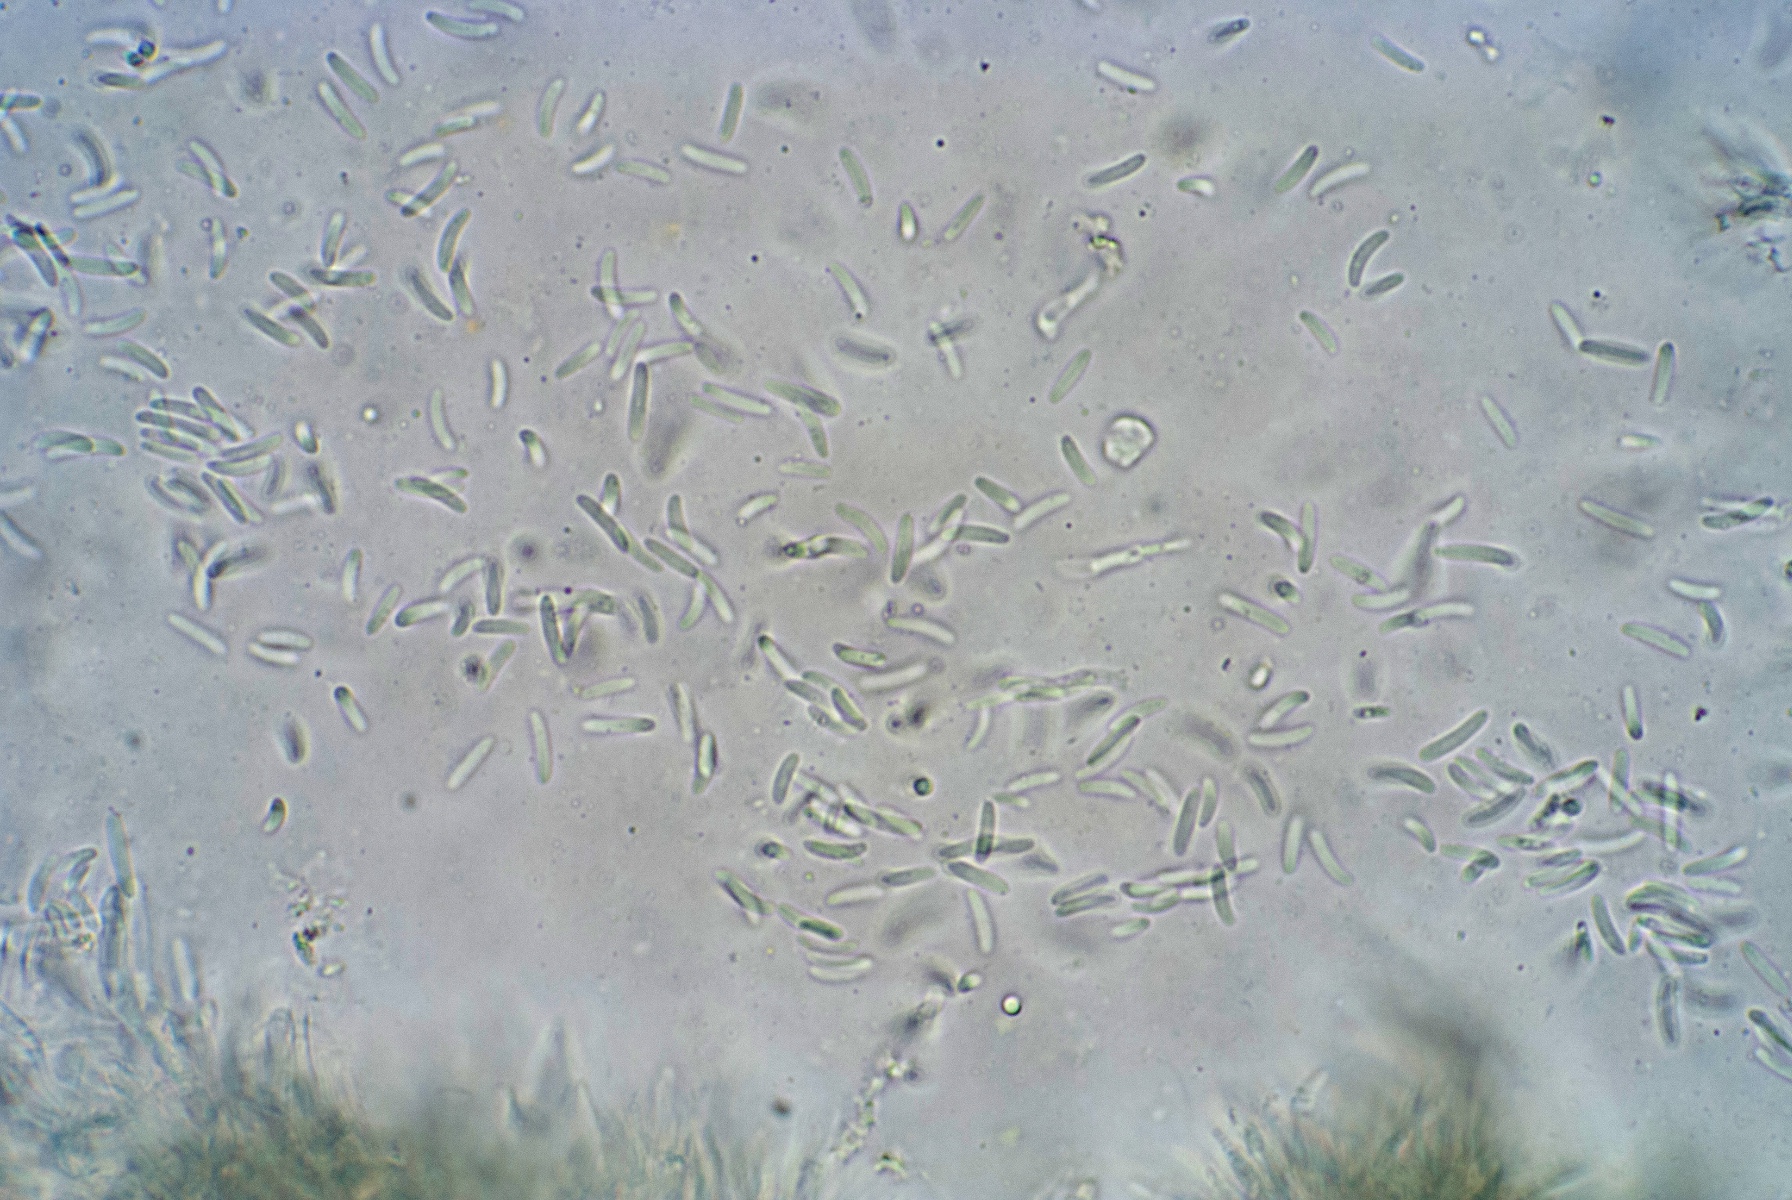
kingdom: Fungi
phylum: Ascomycota
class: Sordariomycetes
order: Diaporthales
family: Valsaceae
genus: Cytospora
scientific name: Cytospora
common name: kulknippe
